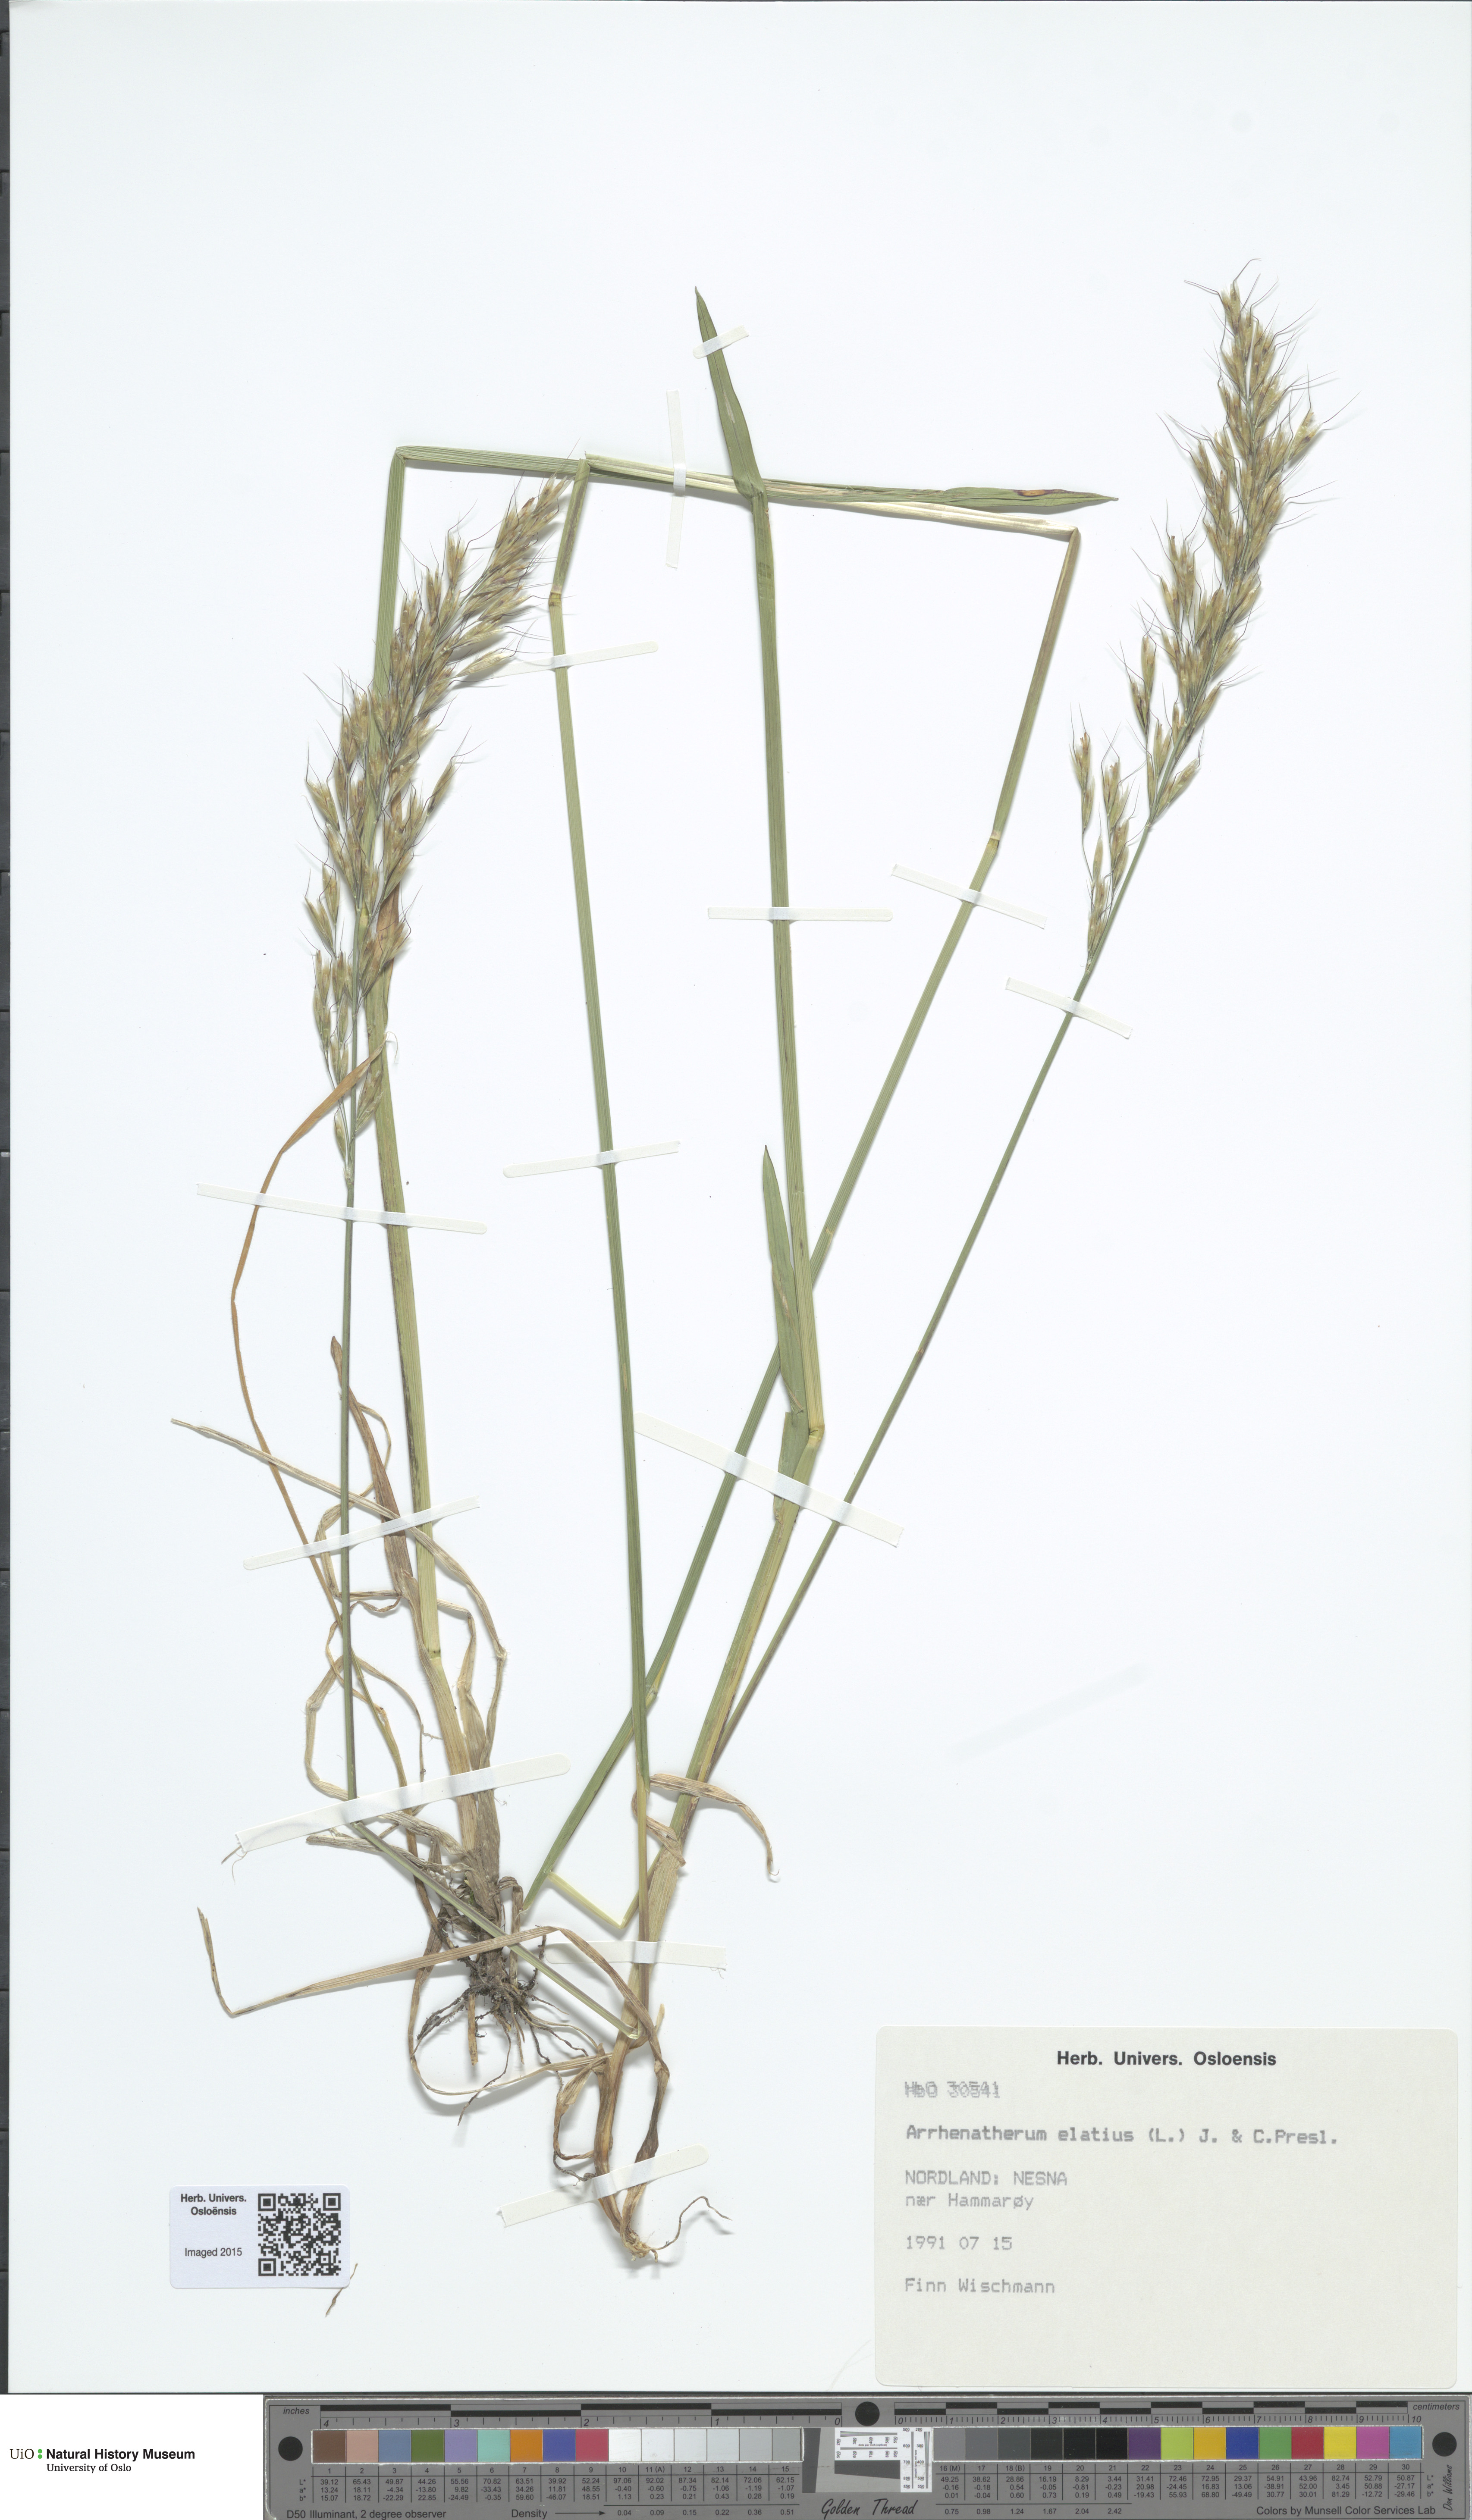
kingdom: Plantae
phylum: Tracheophyta
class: Liliopsida
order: Poales
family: Poaceae
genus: Arrhenatherum
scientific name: Arrhenatherum elatius
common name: Tall oatgrass
